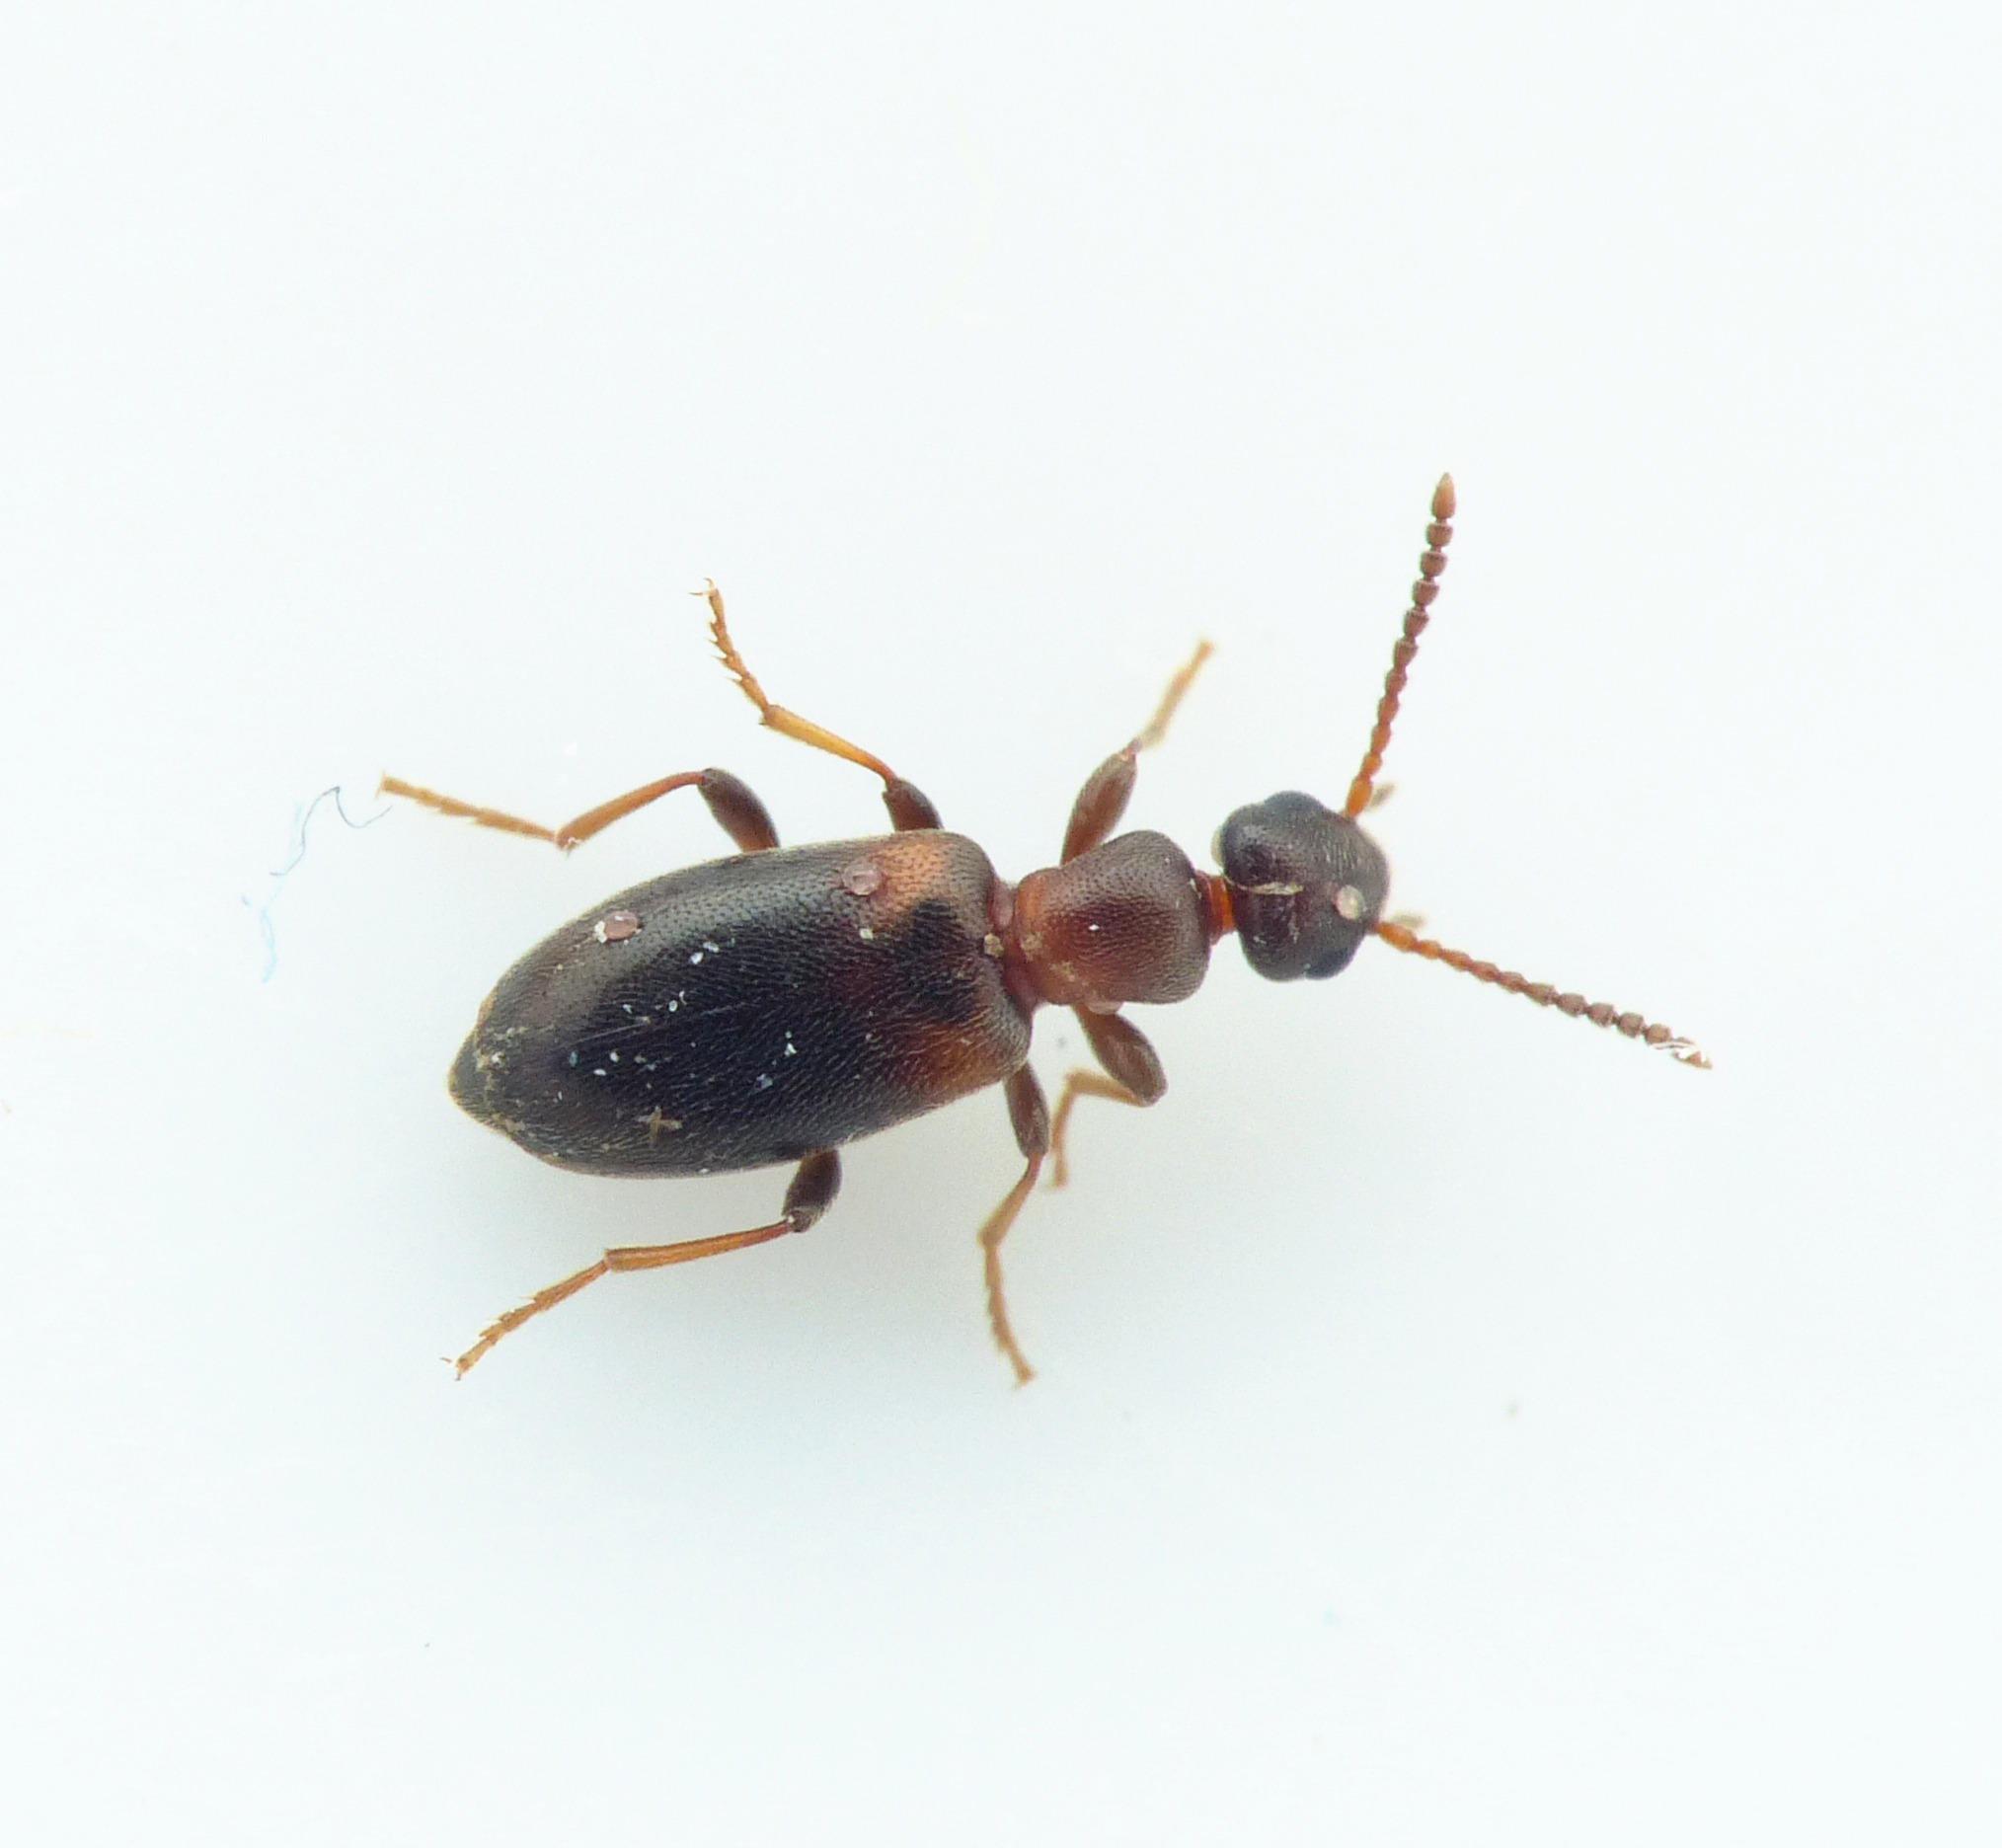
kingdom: Animalia
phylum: Arthropoda
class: Insecta
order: Coleoptera
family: Anthicidae
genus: Omonadus
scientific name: Omonadus formicarius
